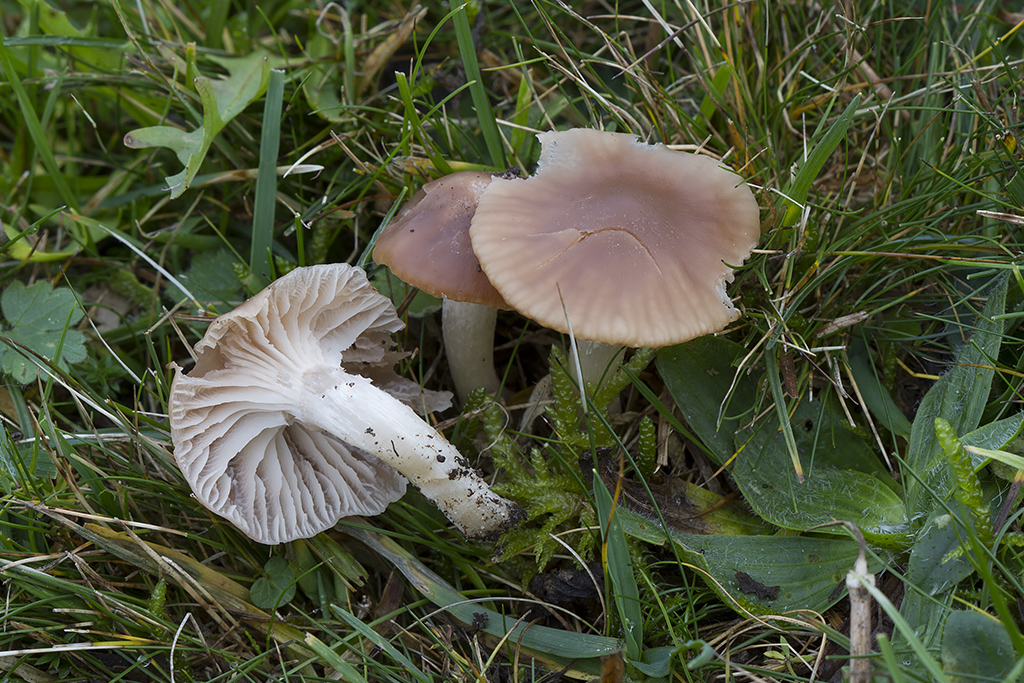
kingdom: Fungi
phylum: Basidiomycota
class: Agaricomycetes
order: Agaricales
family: Hygrophoraceae
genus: Cuphophyllus
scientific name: Cuphophyllus colemannianus
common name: rødbrun vokshat
